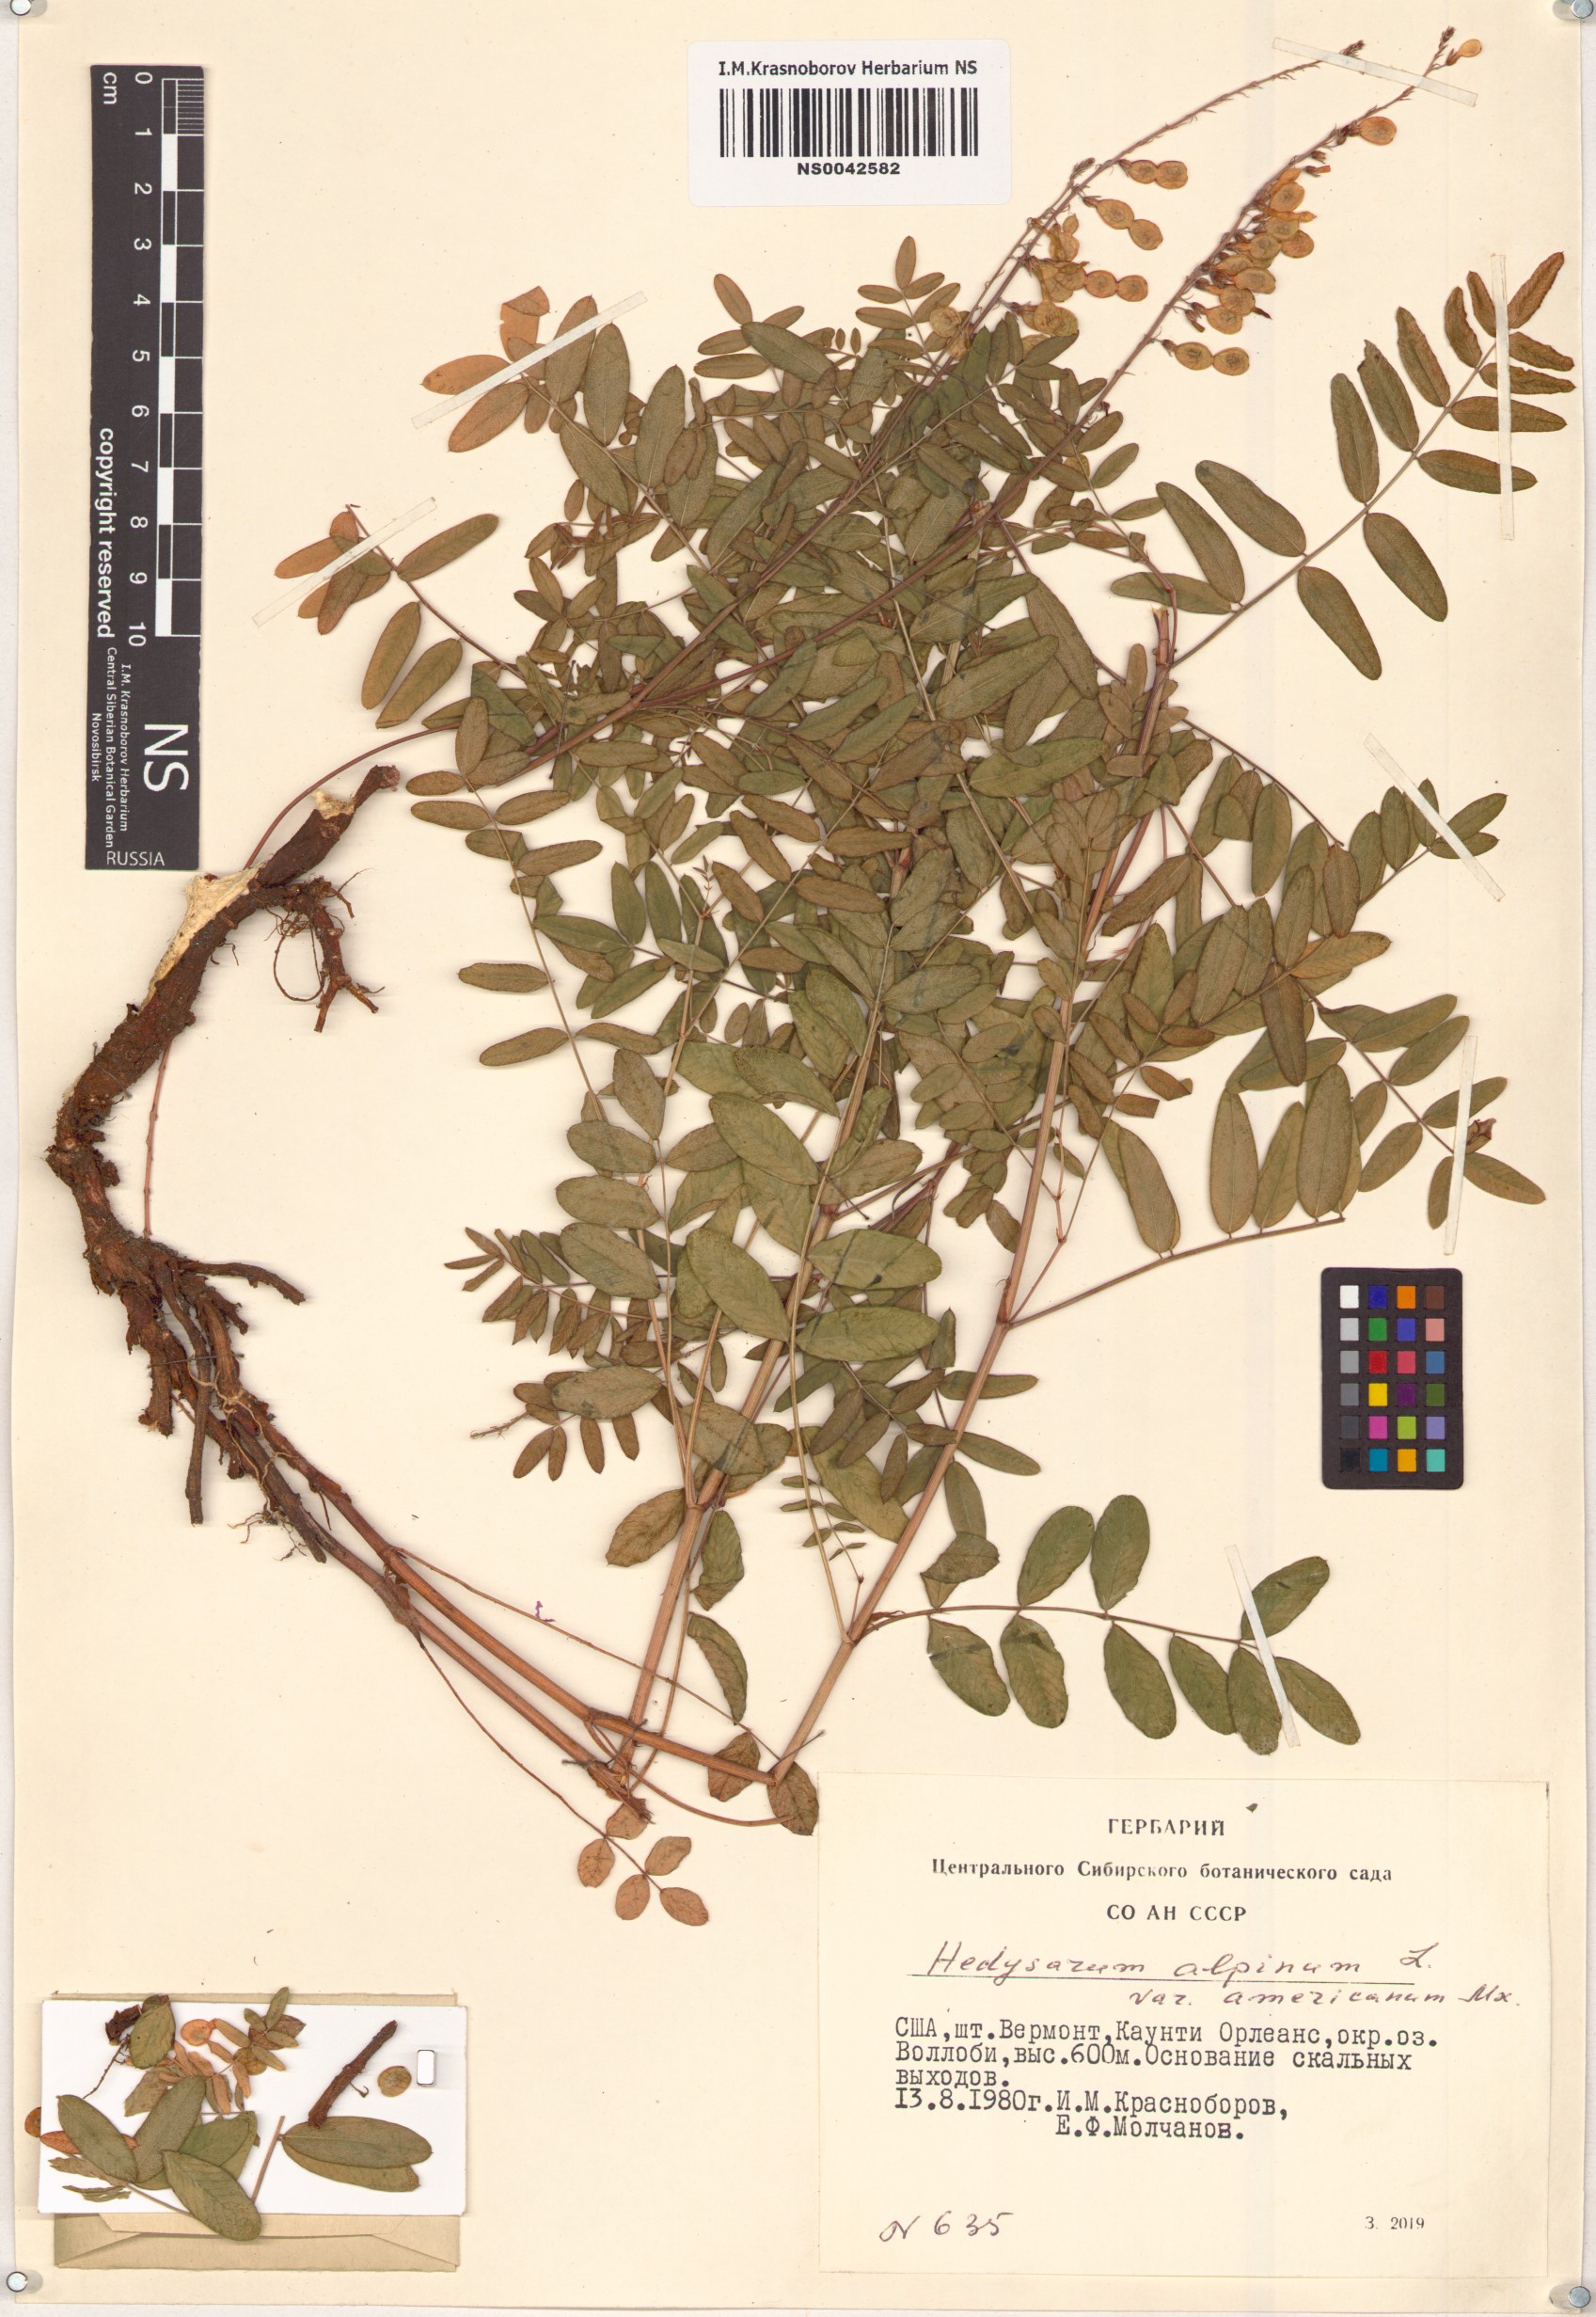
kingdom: Plantae
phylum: Tracheophyta
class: Magnoliopsida
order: Fabales
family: Fabaceae
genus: Hedysarum
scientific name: Hedysarum americanum
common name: Alpine hedysarum
